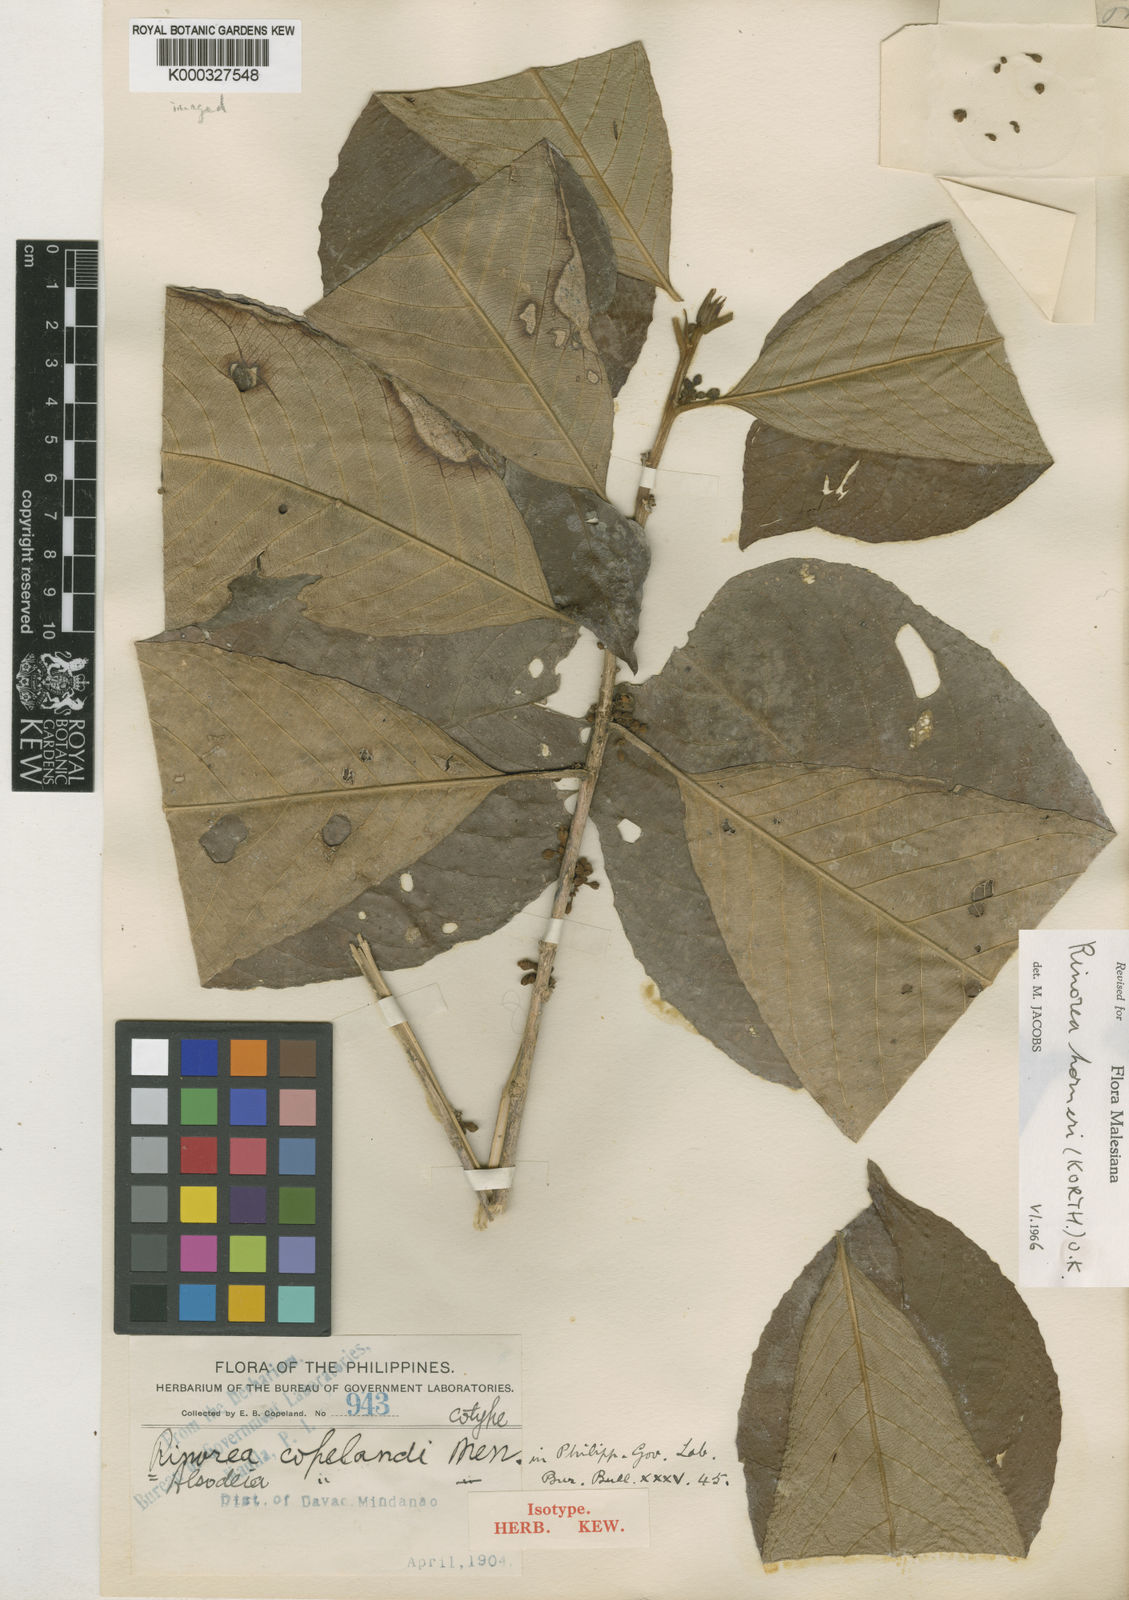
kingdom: Plantae
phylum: Tracheophyta
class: Magnoliopsida
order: Malpighiales
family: Violaceae
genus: Rinorea
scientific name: Rinorea horneri
